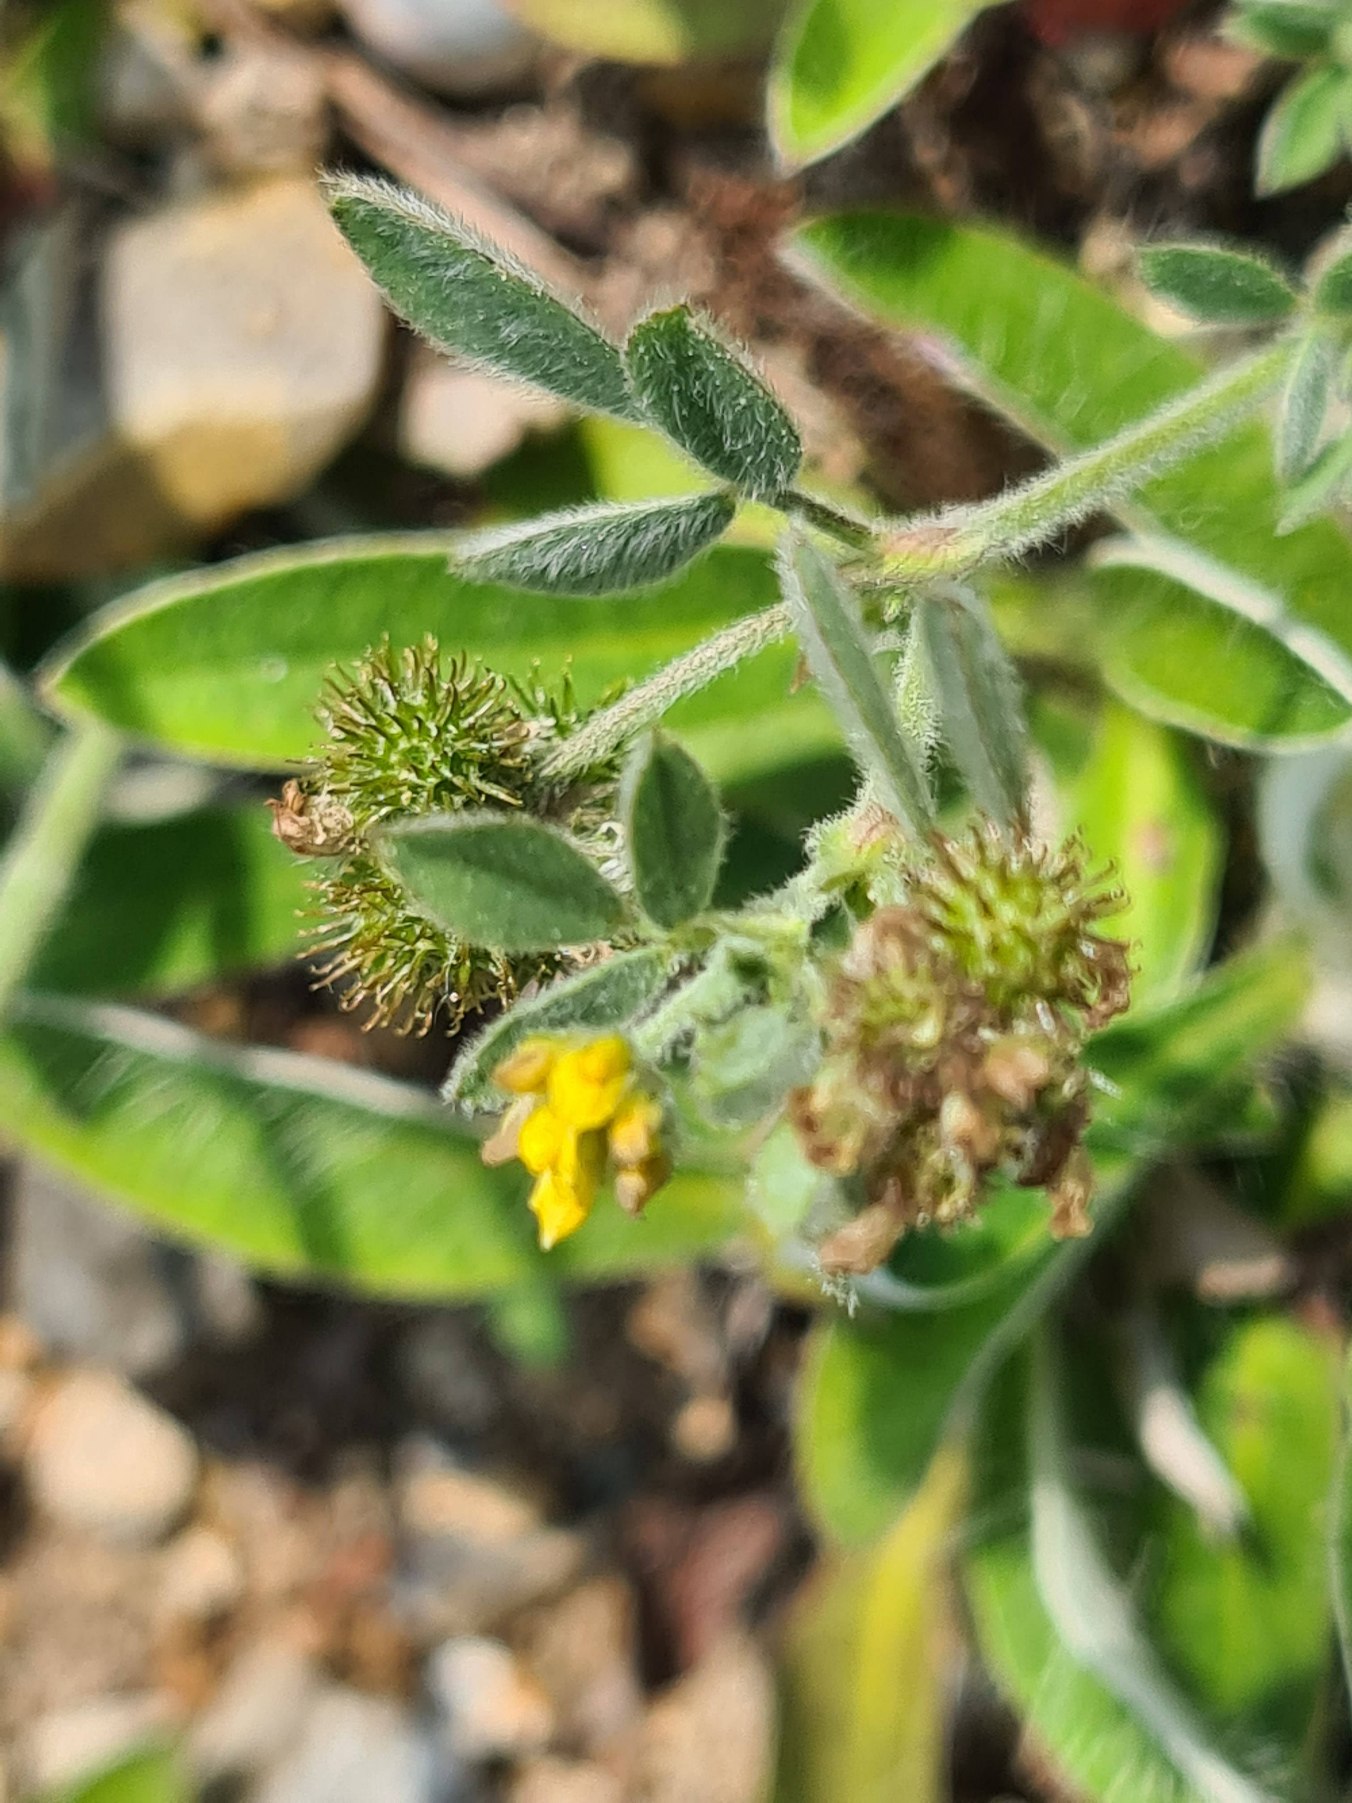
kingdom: Plantae
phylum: Tracheophyta
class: Magnoliopsida
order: Fabales
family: Fabaceae
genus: Medicago
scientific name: Medicago minima
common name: Liden sneglebælg
